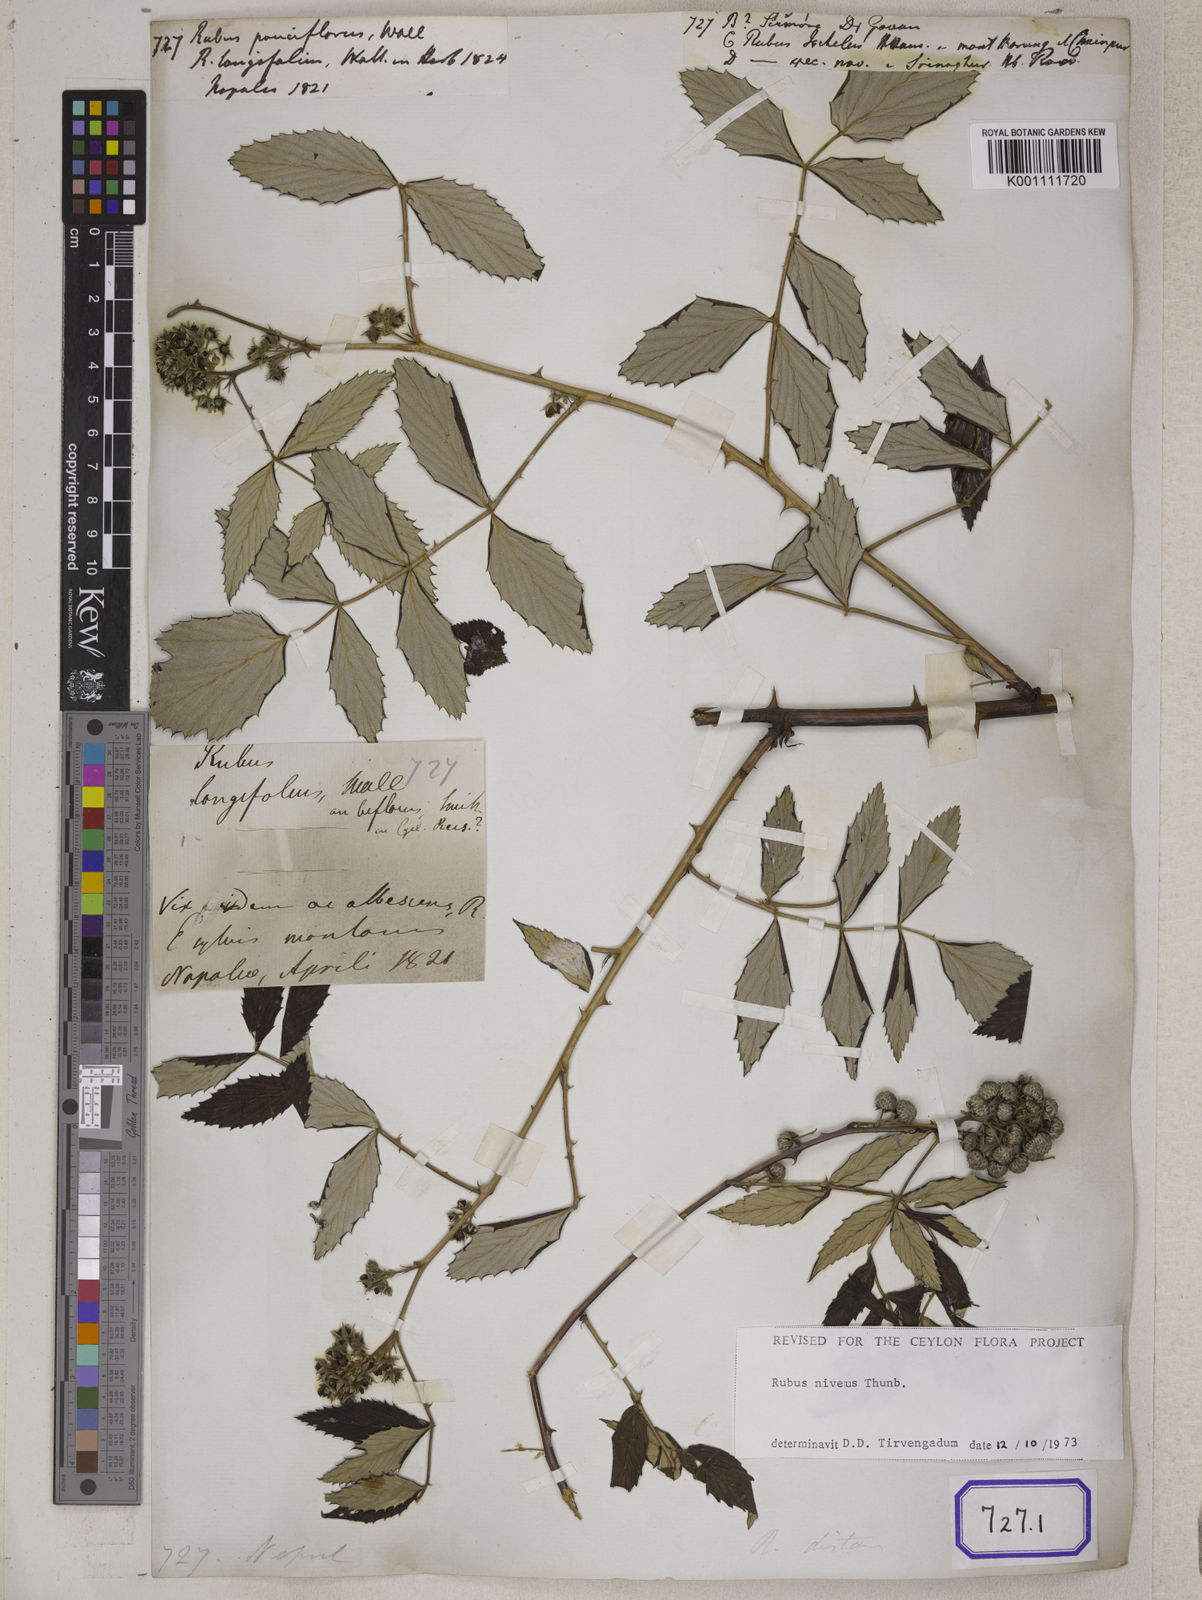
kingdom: Plantae
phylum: Tracheophyta
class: Magnoliopsida
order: Rosales
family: Rosaceae
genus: Rubus
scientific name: Rubus
